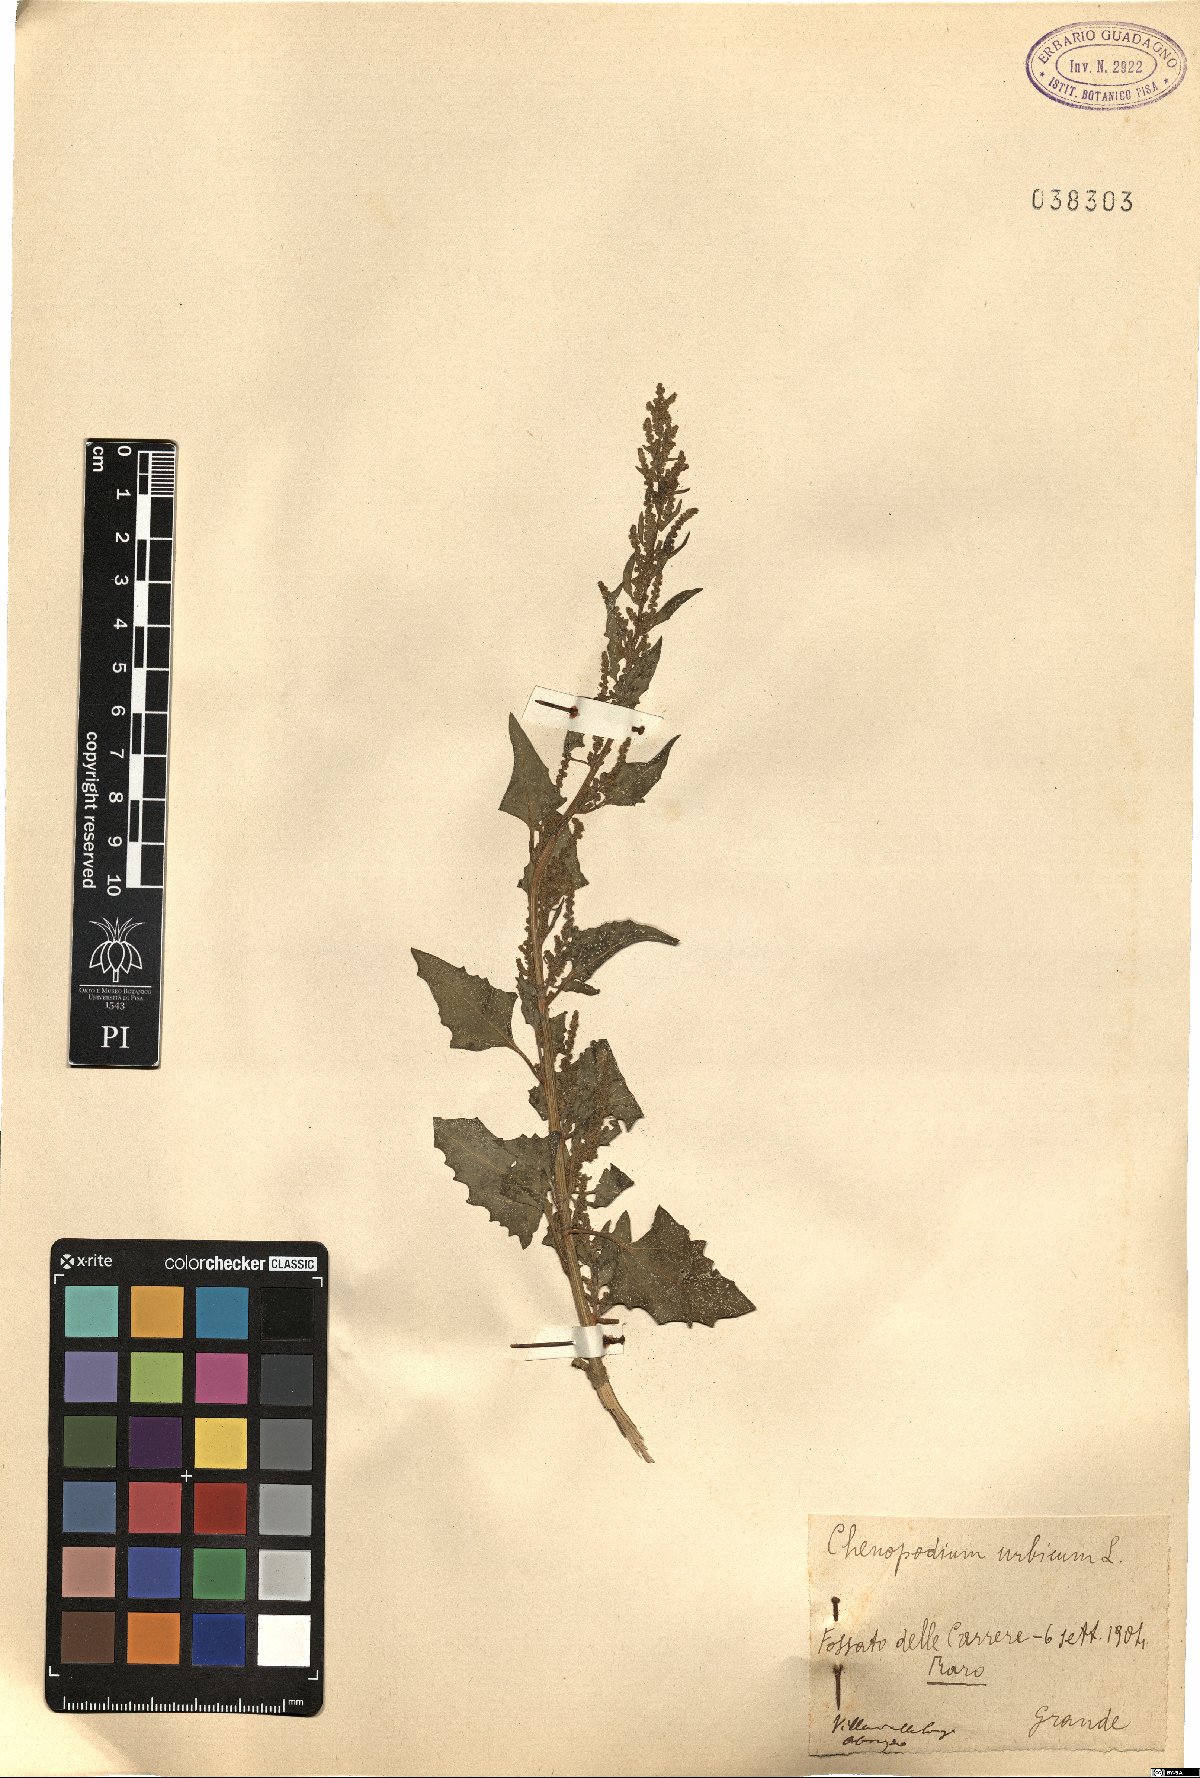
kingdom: Plantae
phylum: Tracheophyta
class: Magnoliopsida
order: Caryophyllales
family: Amaranthaceae
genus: Oxybasis
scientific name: Oxybasis urbica
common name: City goosefoot
